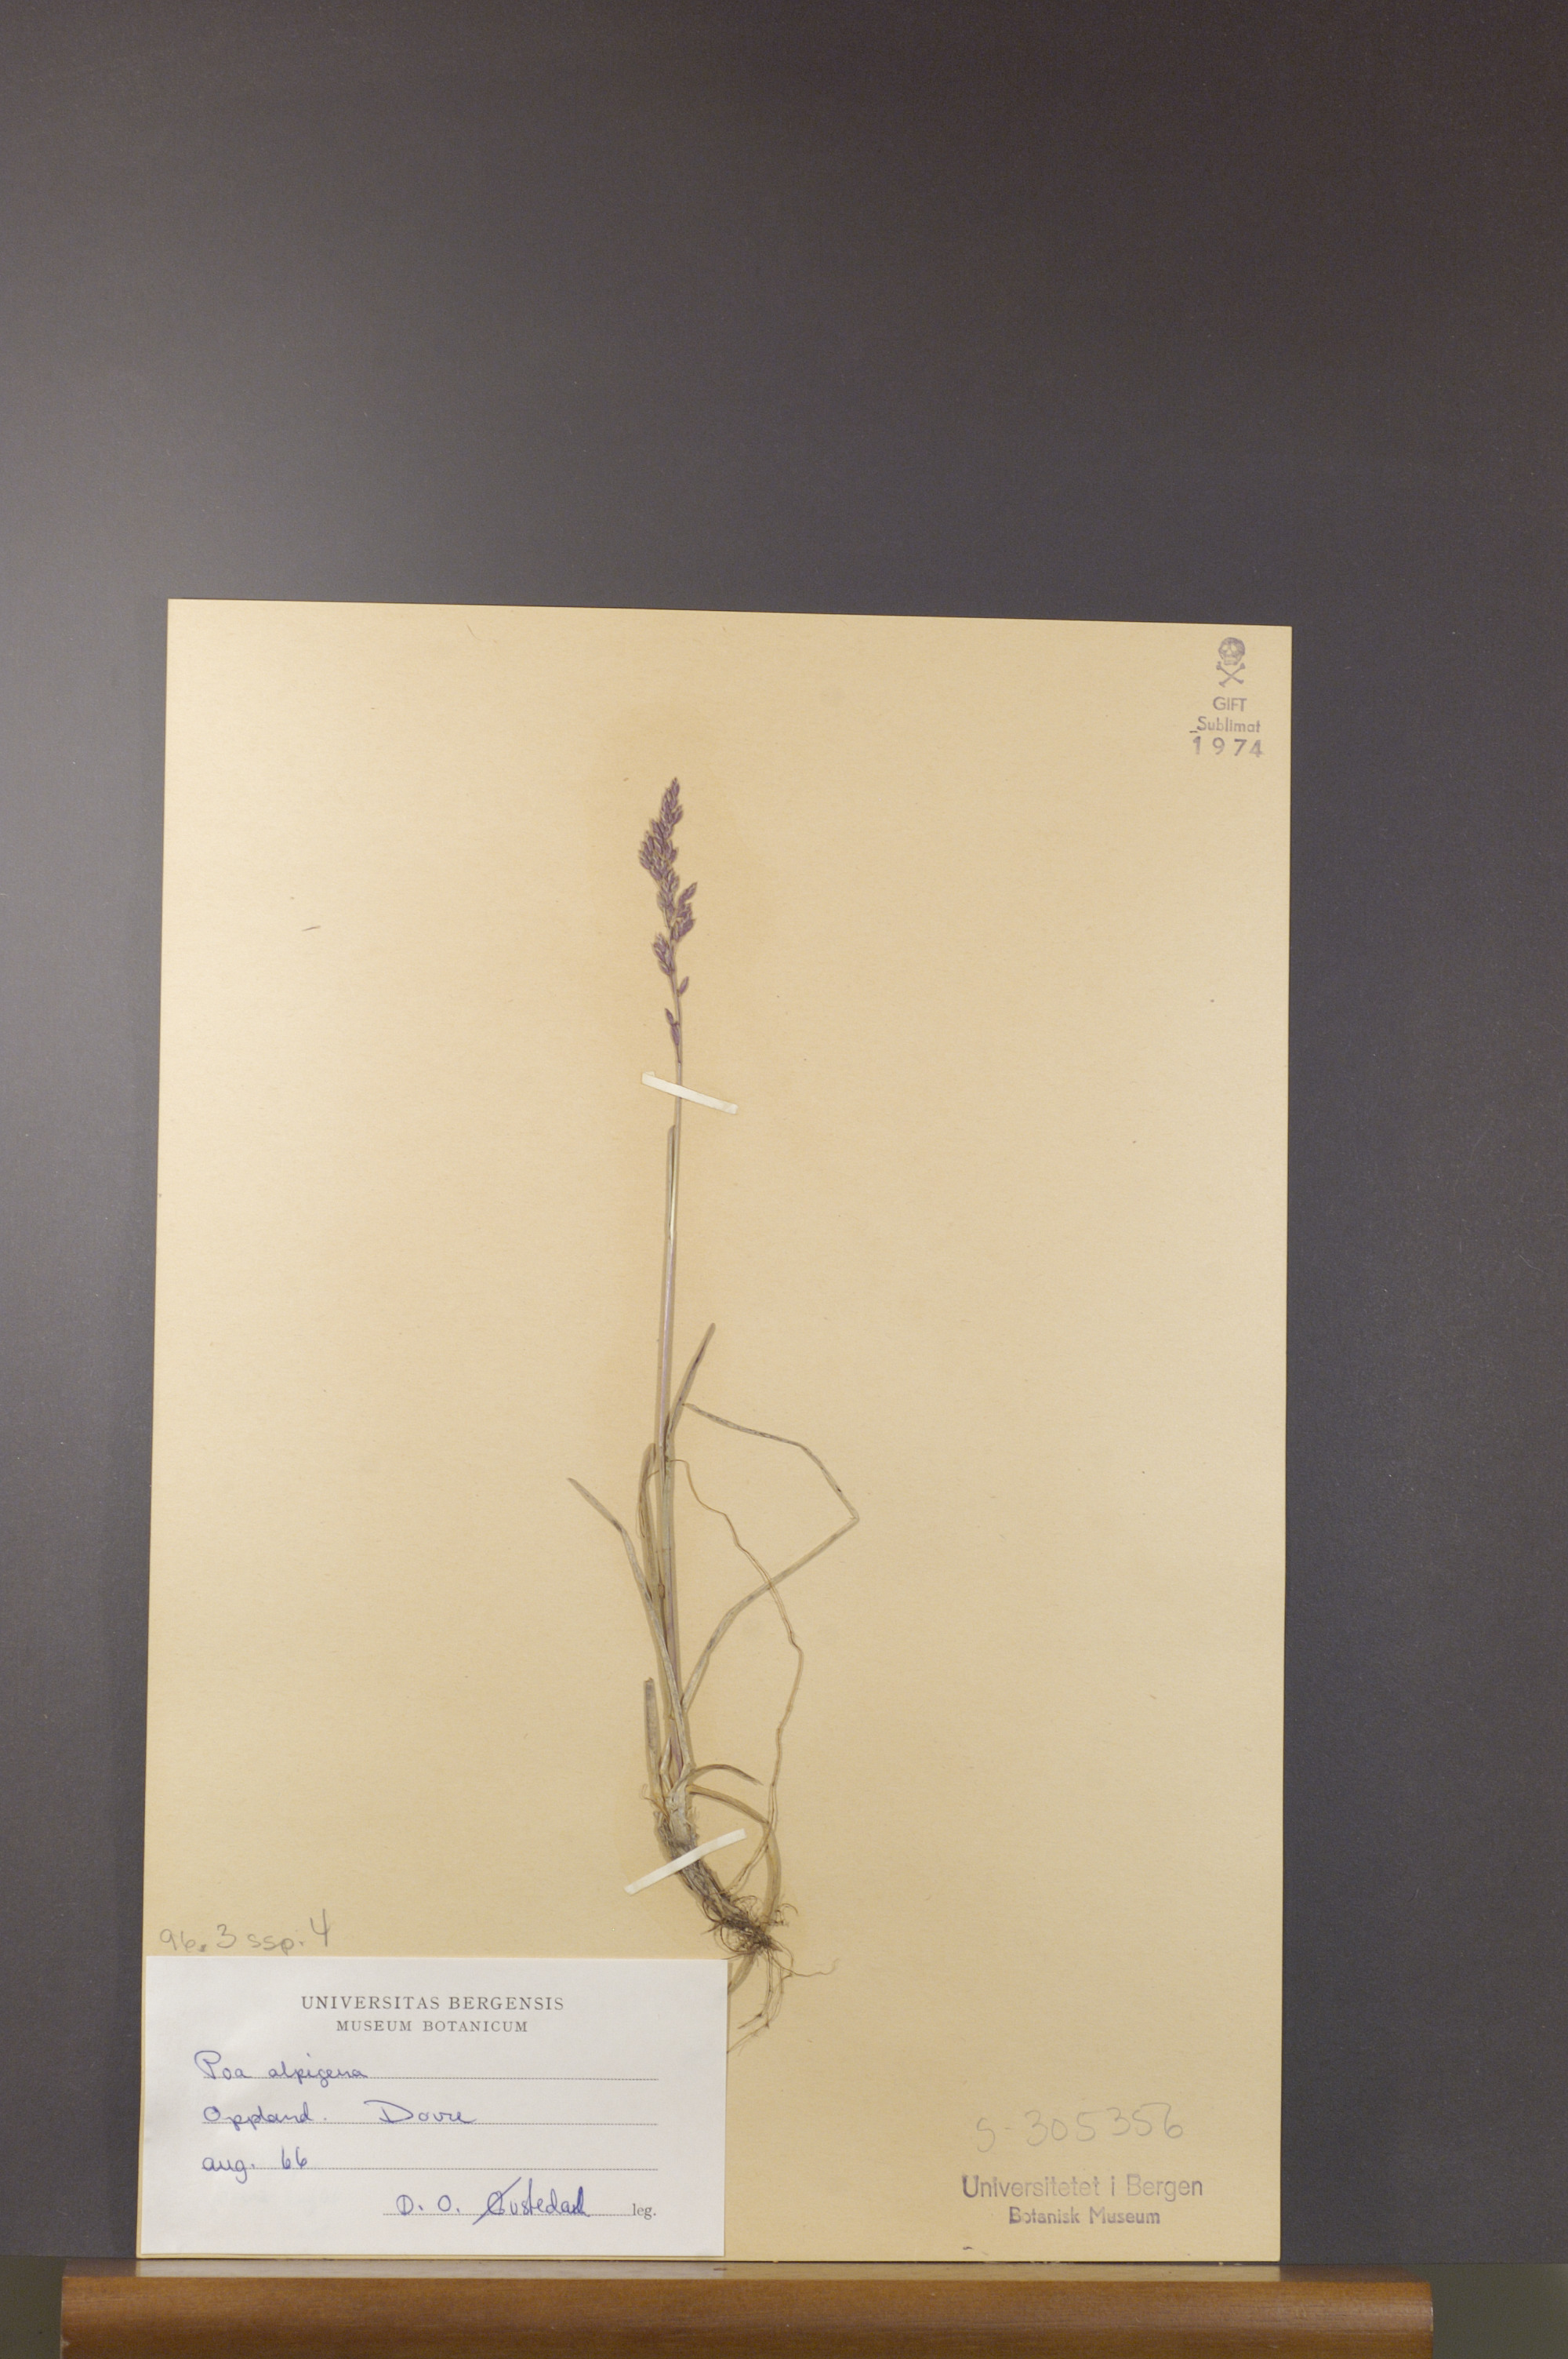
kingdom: Plantae
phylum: Tracheophyta
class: Liliopsida
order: Poales
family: Poaceae
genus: Poa
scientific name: Poa alpigena
